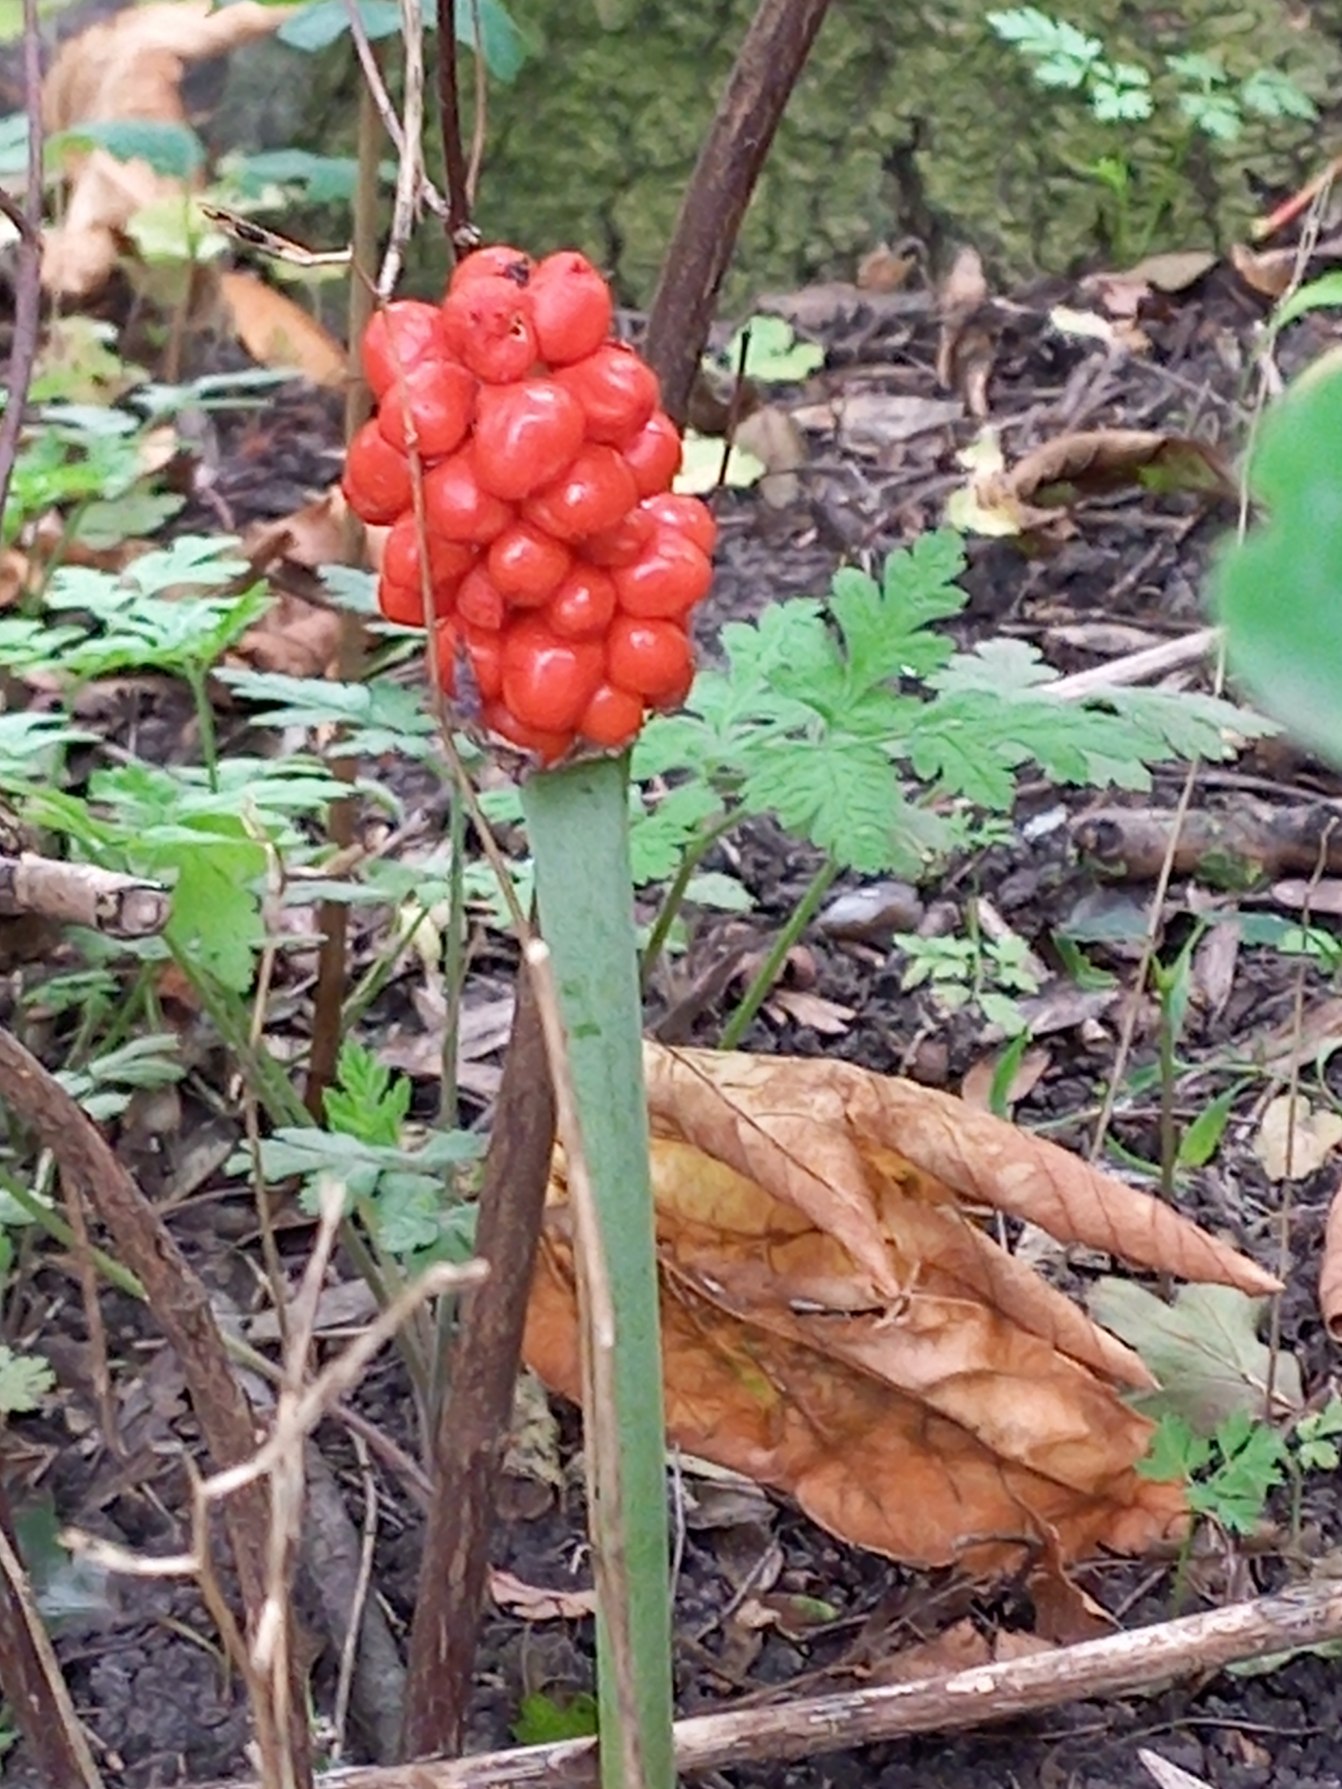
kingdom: Plantae
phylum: Tracheophyta
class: Liliopsida
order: Alismatales
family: Araceae
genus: Arum
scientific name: Arum
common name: Arumslægten
